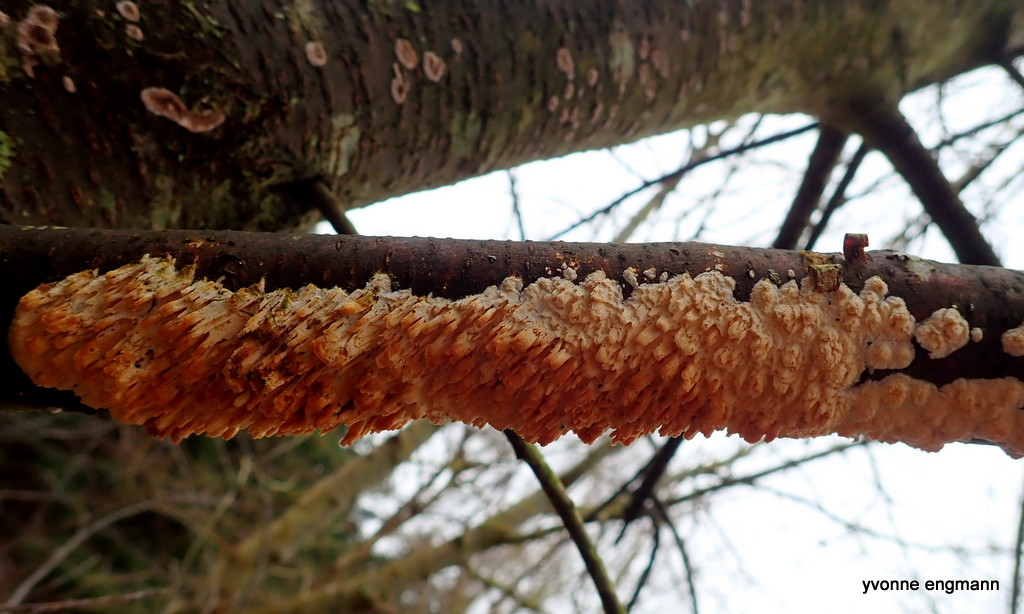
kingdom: Fungi
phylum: Basidiomycota
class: Agaricomycetes
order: Hymenochaetales
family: Schizoporaceae
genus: Xylodon
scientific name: Xylodon radula
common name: grovtandet kalkskind
